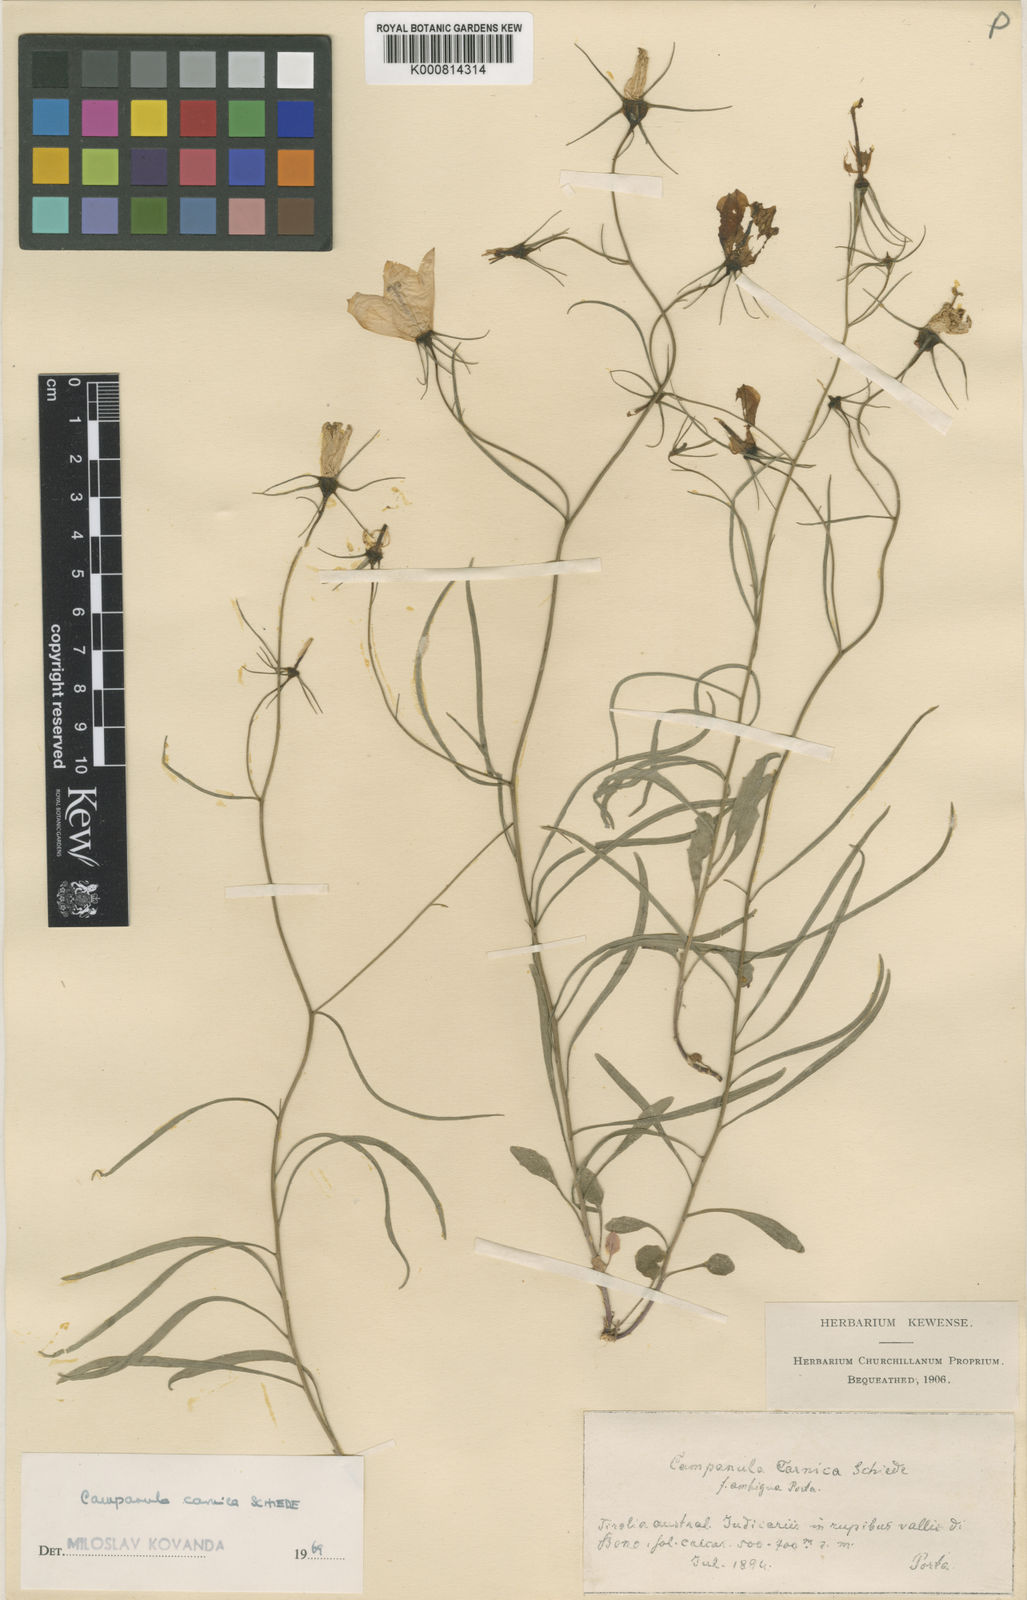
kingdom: Plantae
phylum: Tracheophyta
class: Magnoliopsida
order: Asterales
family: Campanulaceae
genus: Campanula
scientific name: Campanula carnica
